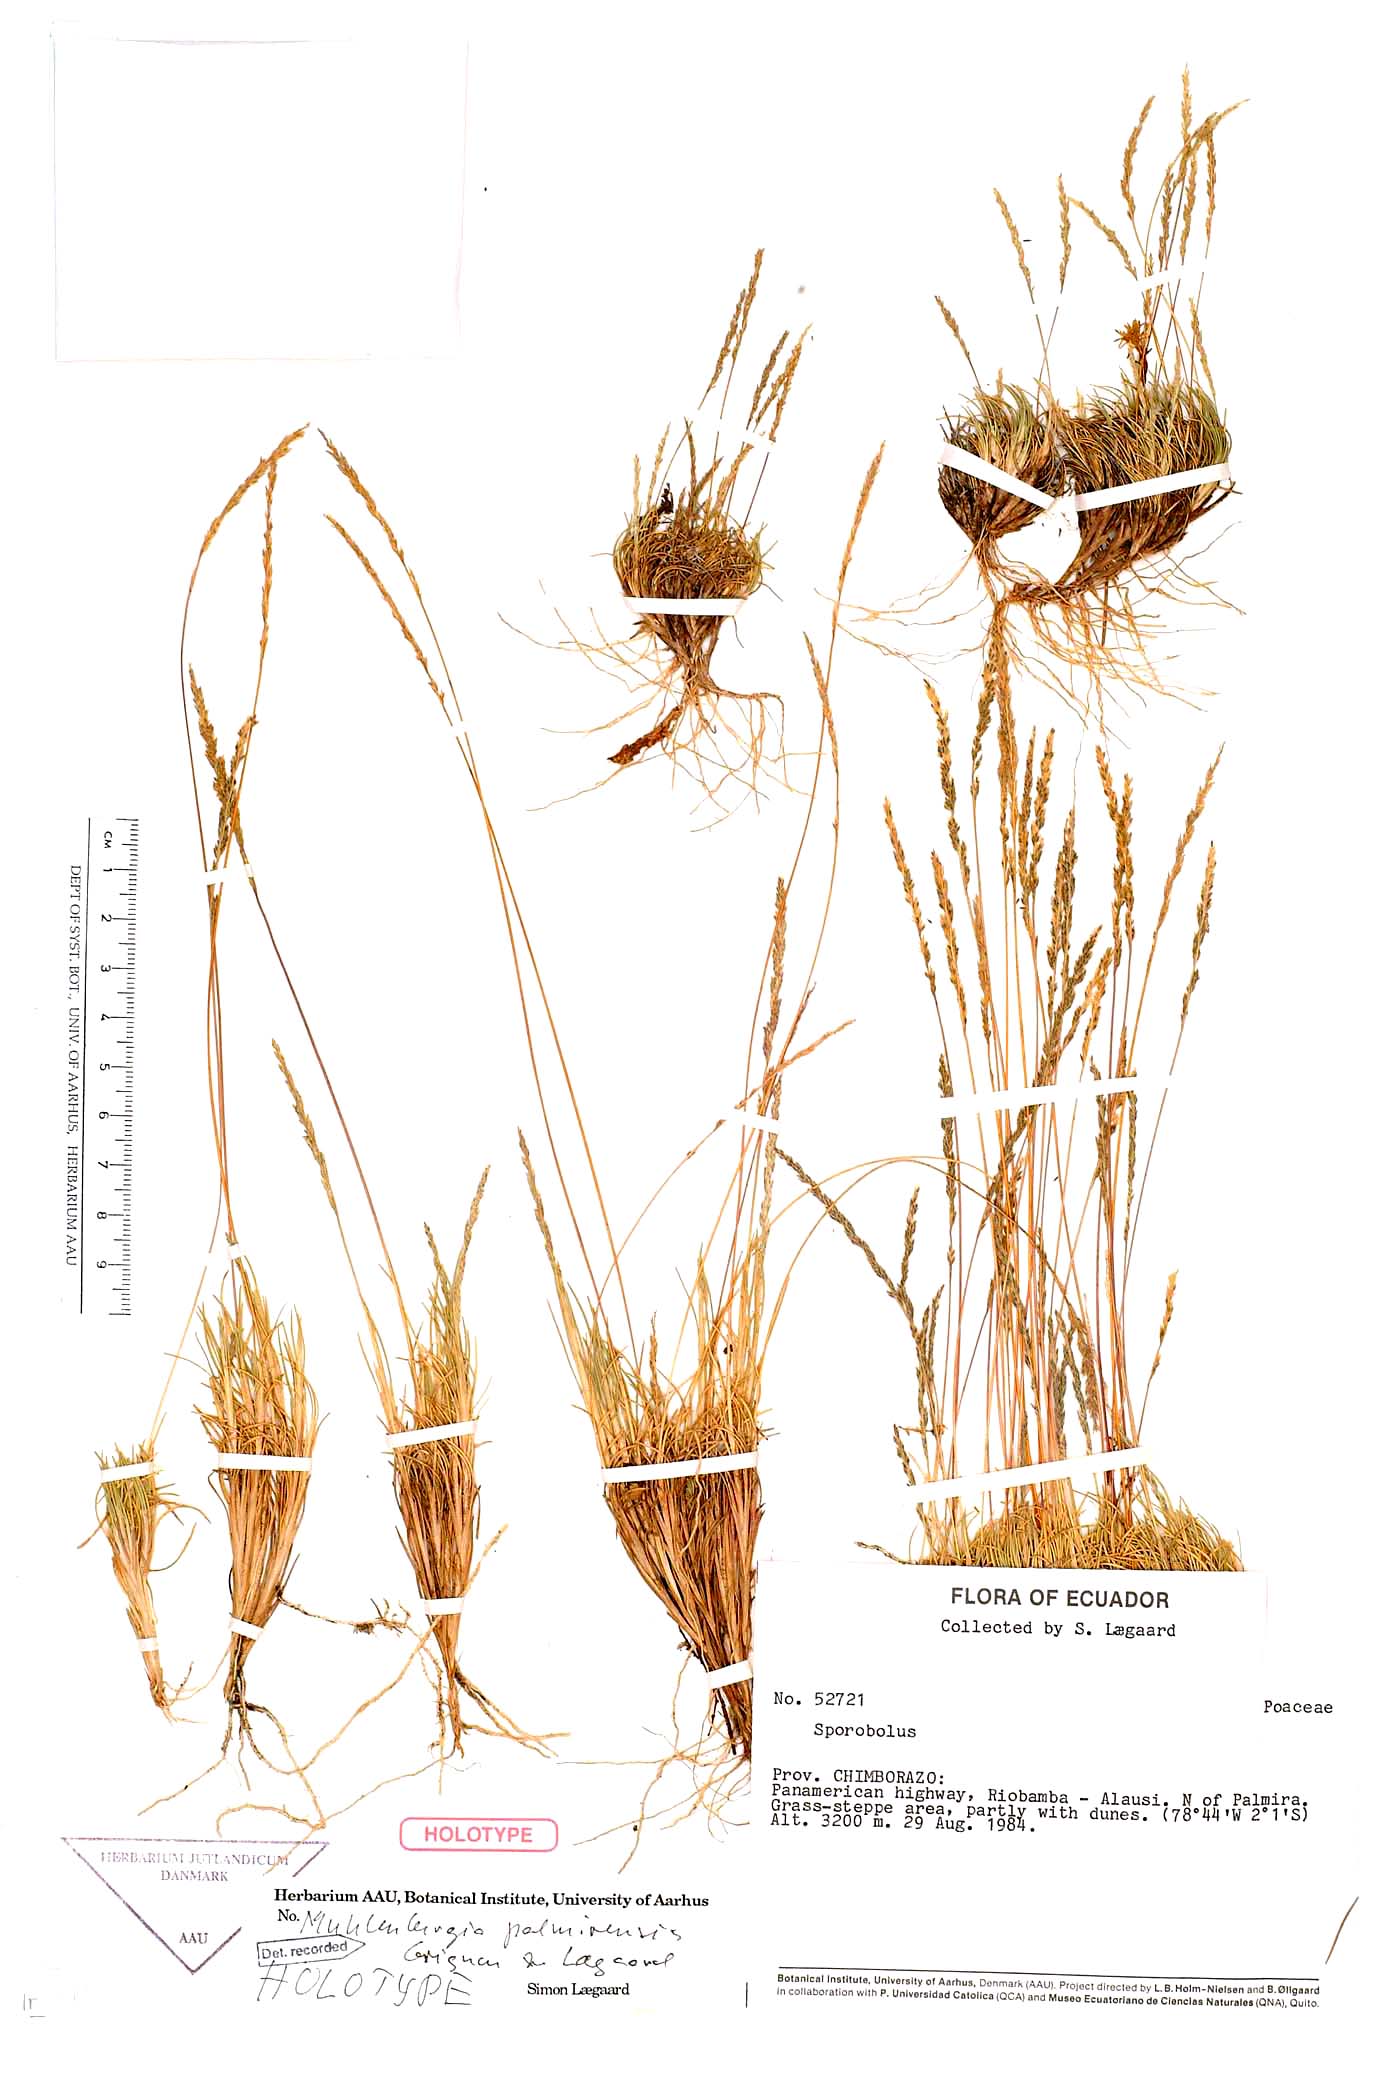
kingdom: Plantae
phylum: Tracheophyta
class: Liliopsida
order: Poales
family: Poaceae
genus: Muhlenbergia
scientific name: Muhlenbergia palmirensis
